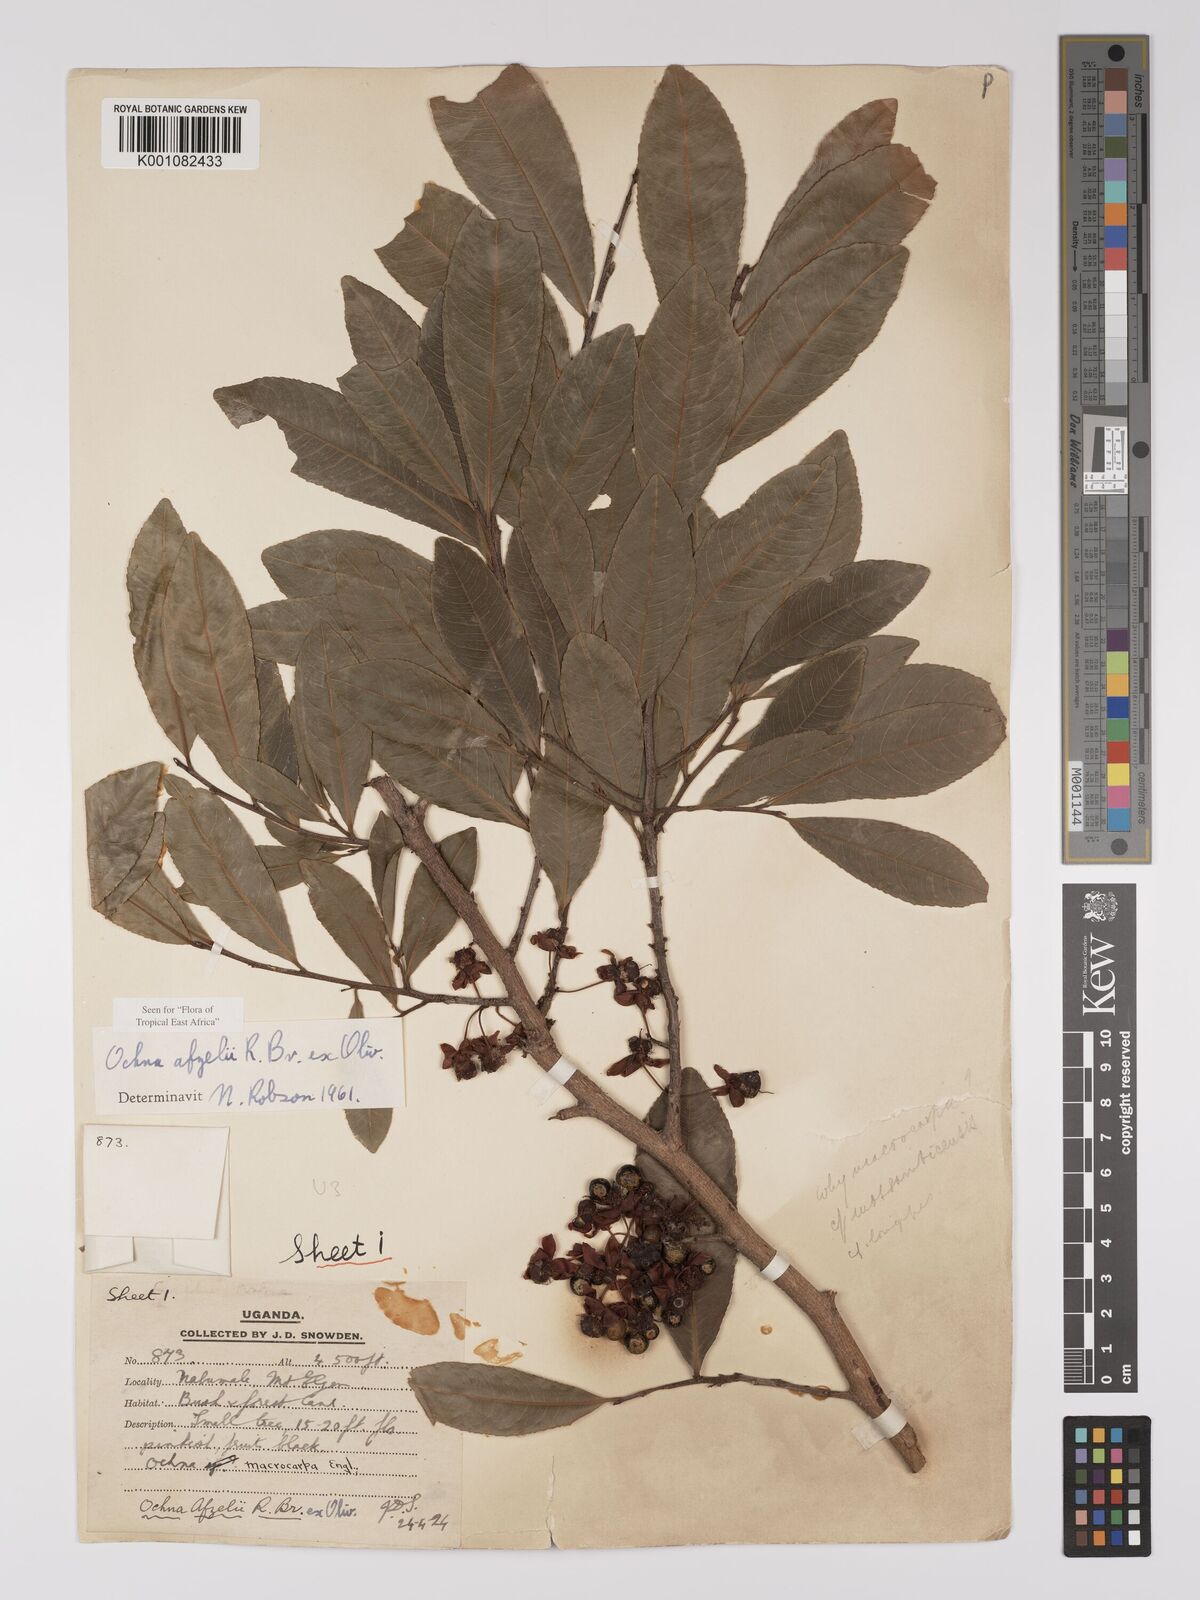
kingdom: Plantae
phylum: Tracheophyta
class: Magnoliopsida
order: Malpighiales
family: Ochnaceae
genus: Ochna
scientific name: Ochna afzelii
